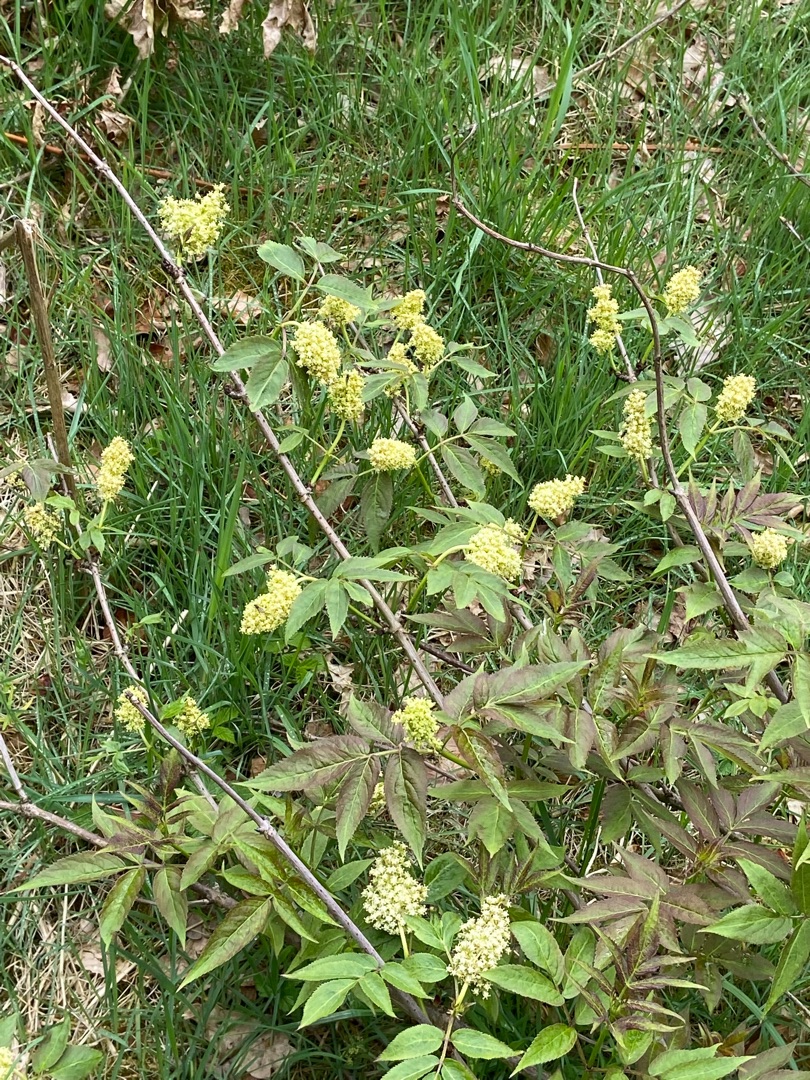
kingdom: Plantae
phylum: Tracheophyta
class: Magnoliopsida
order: Dipsacales
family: Viburnaceae
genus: Sambucus
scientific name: Sambucus racemosa
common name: Drue-hyld
